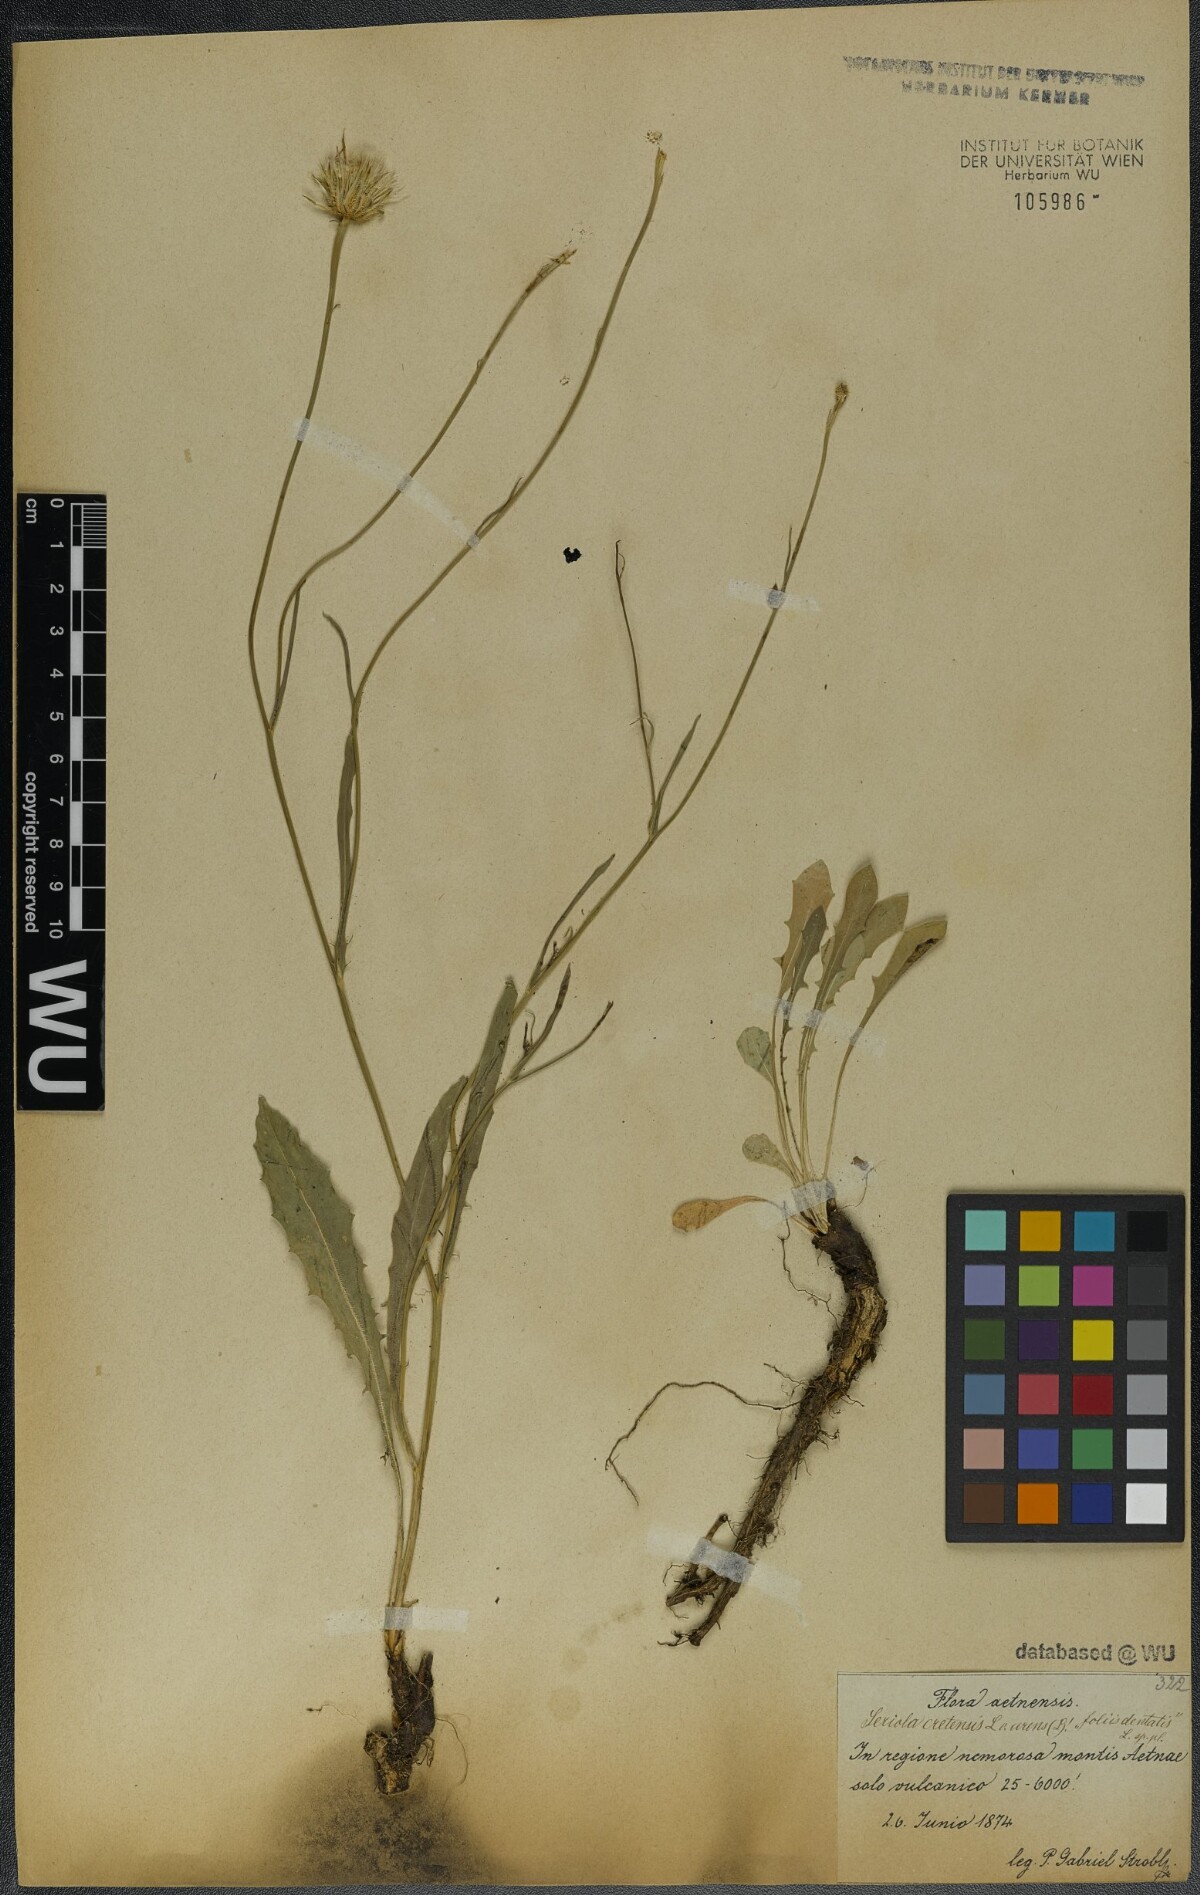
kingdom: Plantae
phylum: Tracheophyta
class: Magnoliopsida
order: Asterales
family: Asteraceae
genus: Hypochaeris
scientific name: Hypochaeris cretensis
